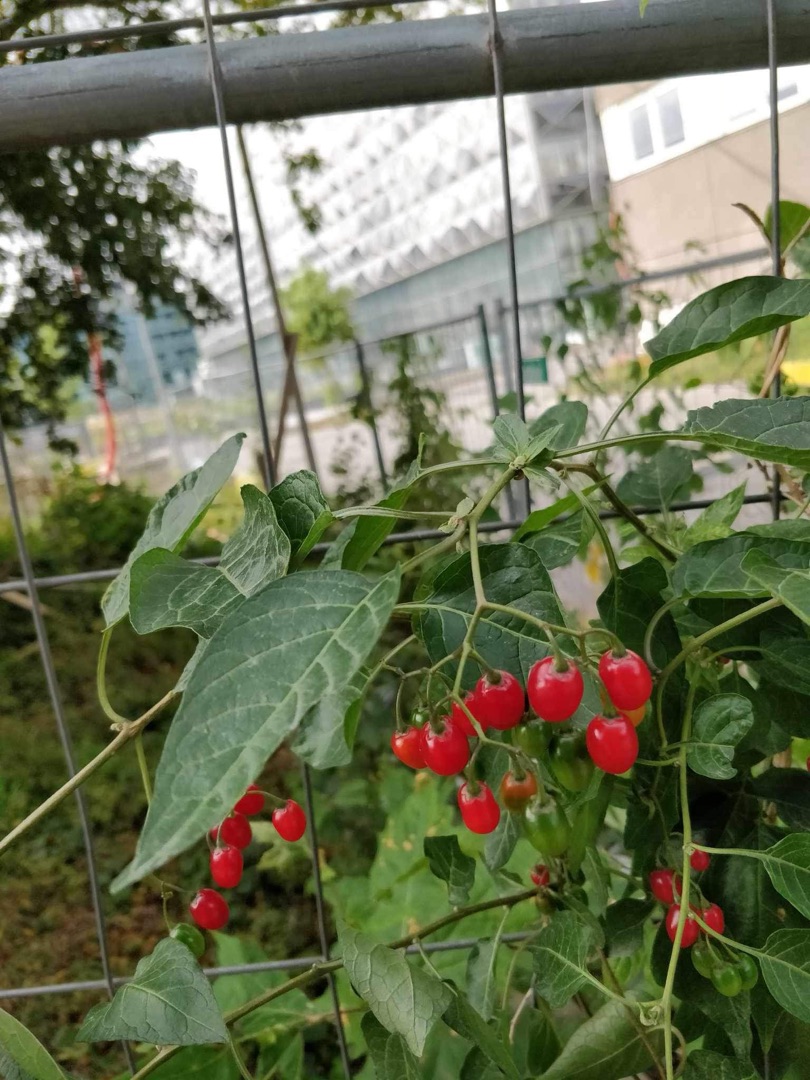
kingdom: Plantae
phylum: Tracheophyta
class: Magnoliopsida
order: Solanales
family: Solanaceae
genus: Solanum
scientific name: Solanum dulcamara
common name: Bittersød natskygge
